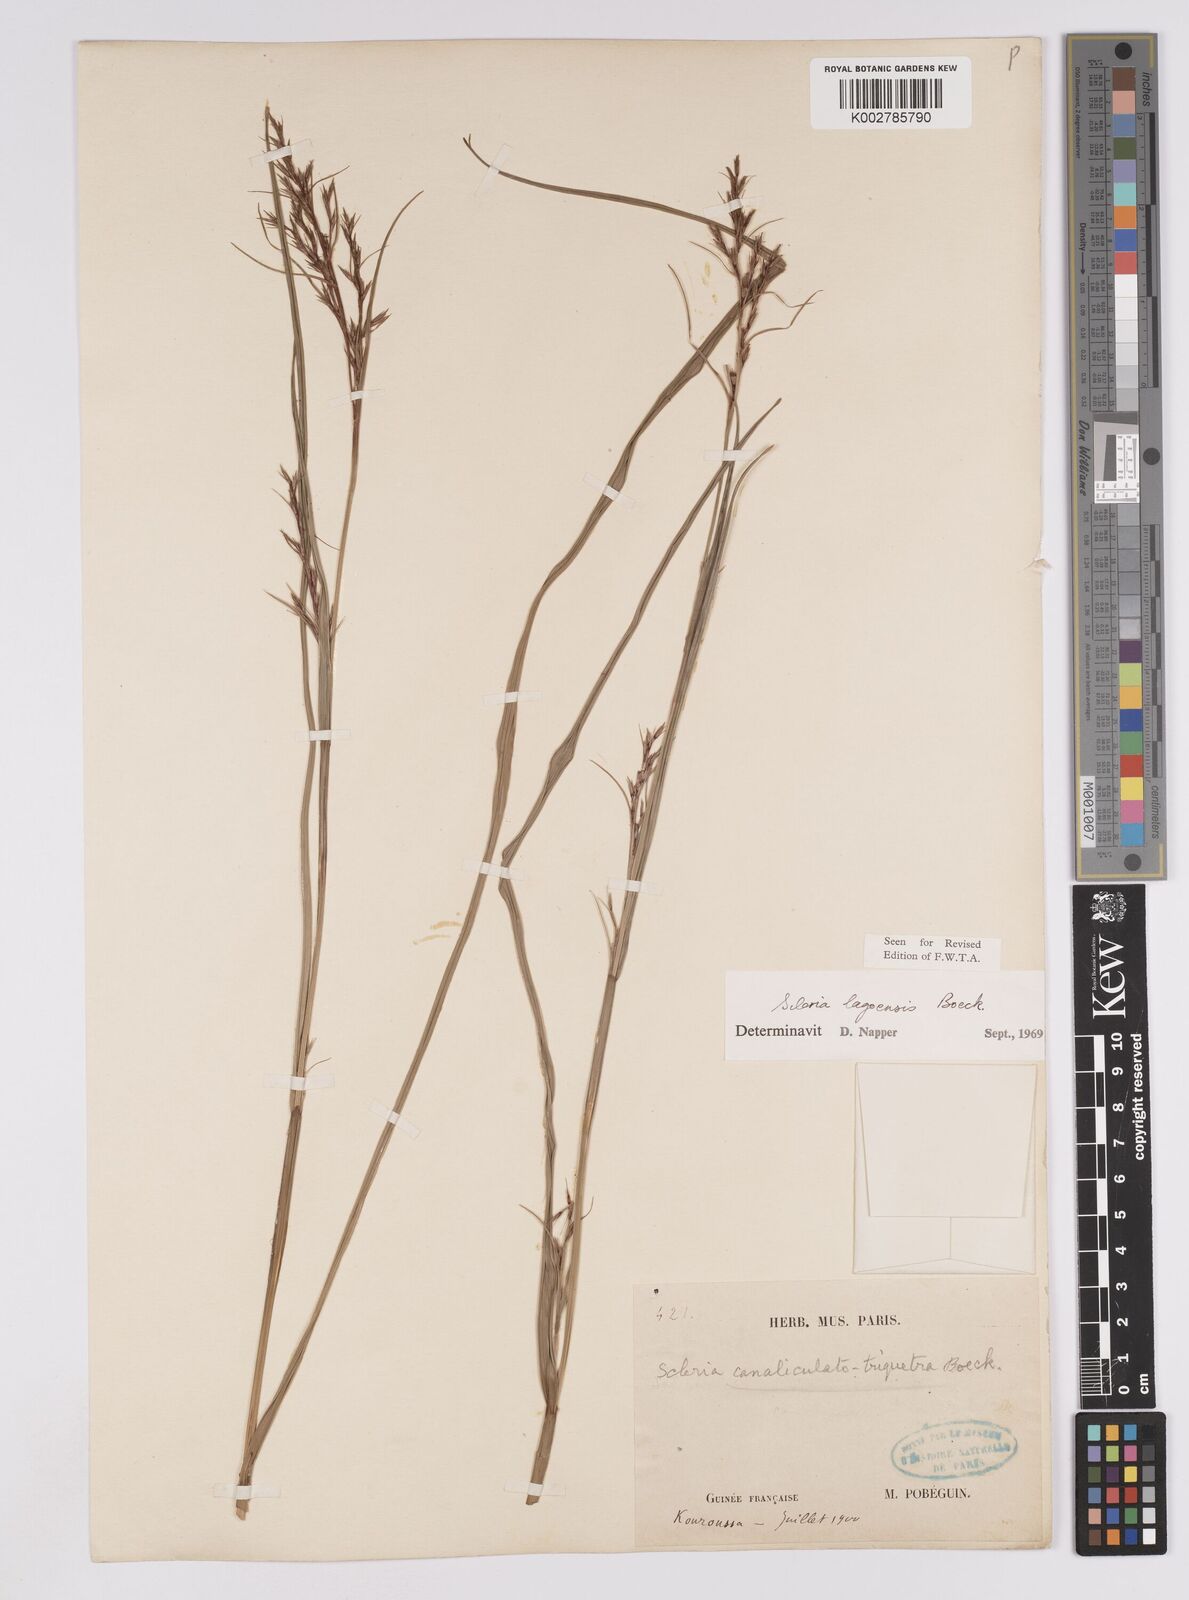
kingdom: Plantae
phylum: Tracheophyta
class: Liliopsida
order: Poales
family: Cyperaceae
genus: Scleria
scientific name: Scleria lagoensis
